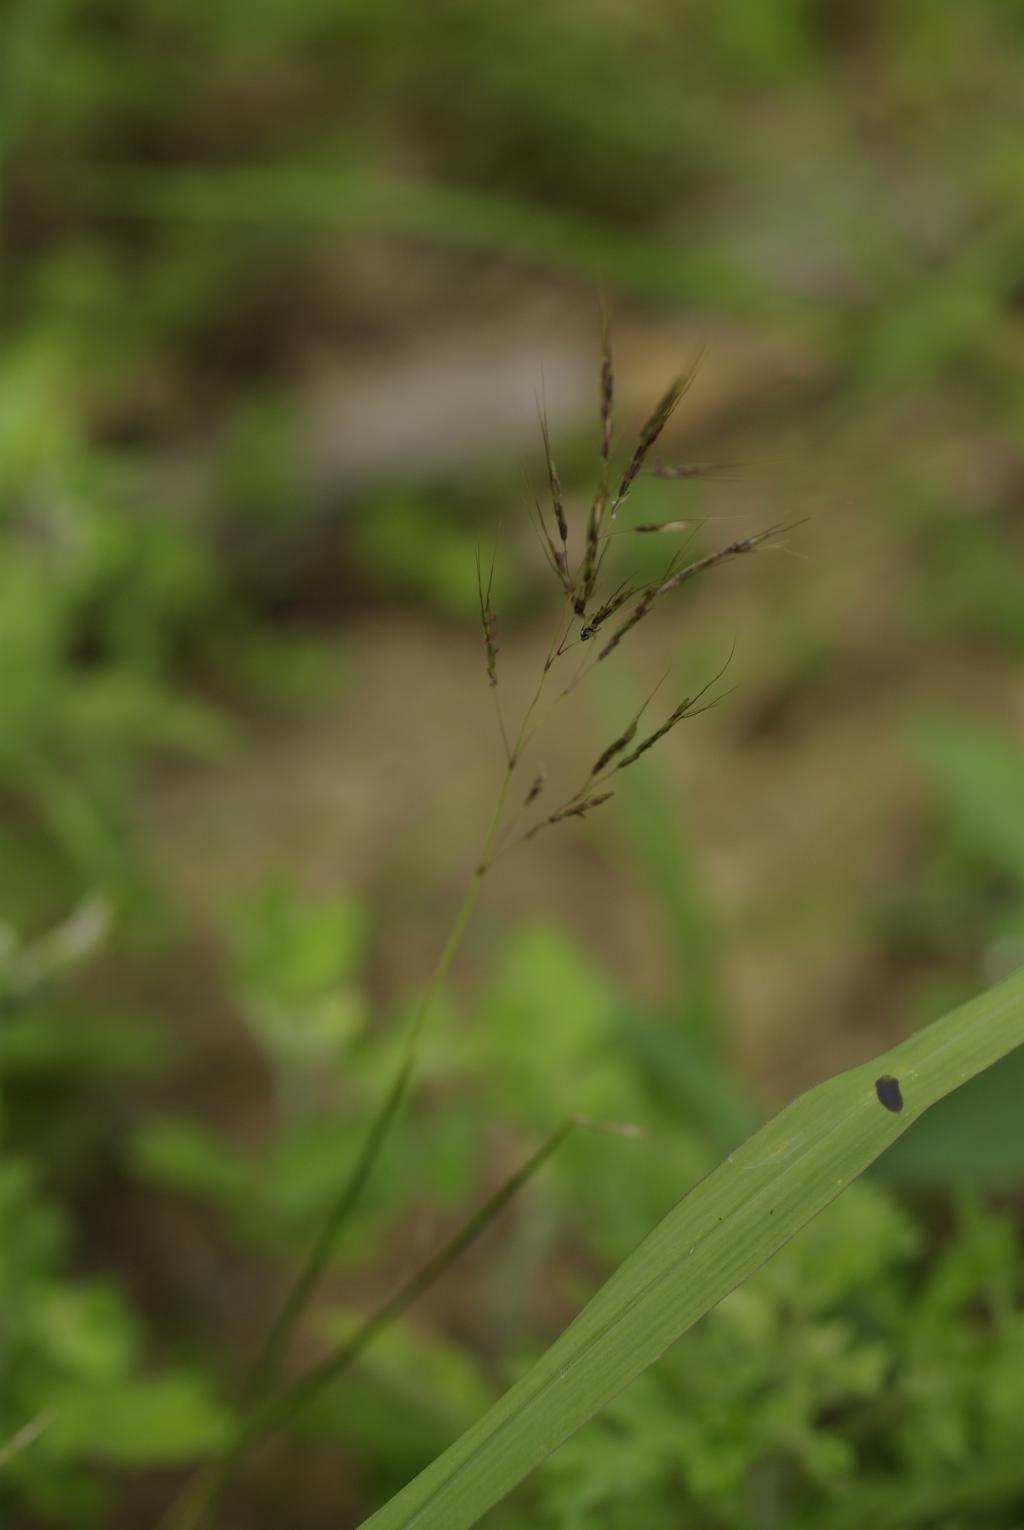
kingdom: Plantae
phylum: Tracheophyta
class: Liliopsida
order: Poales
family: Poaceae
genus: Capillipedium
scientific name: Capillipedium parviflorum
